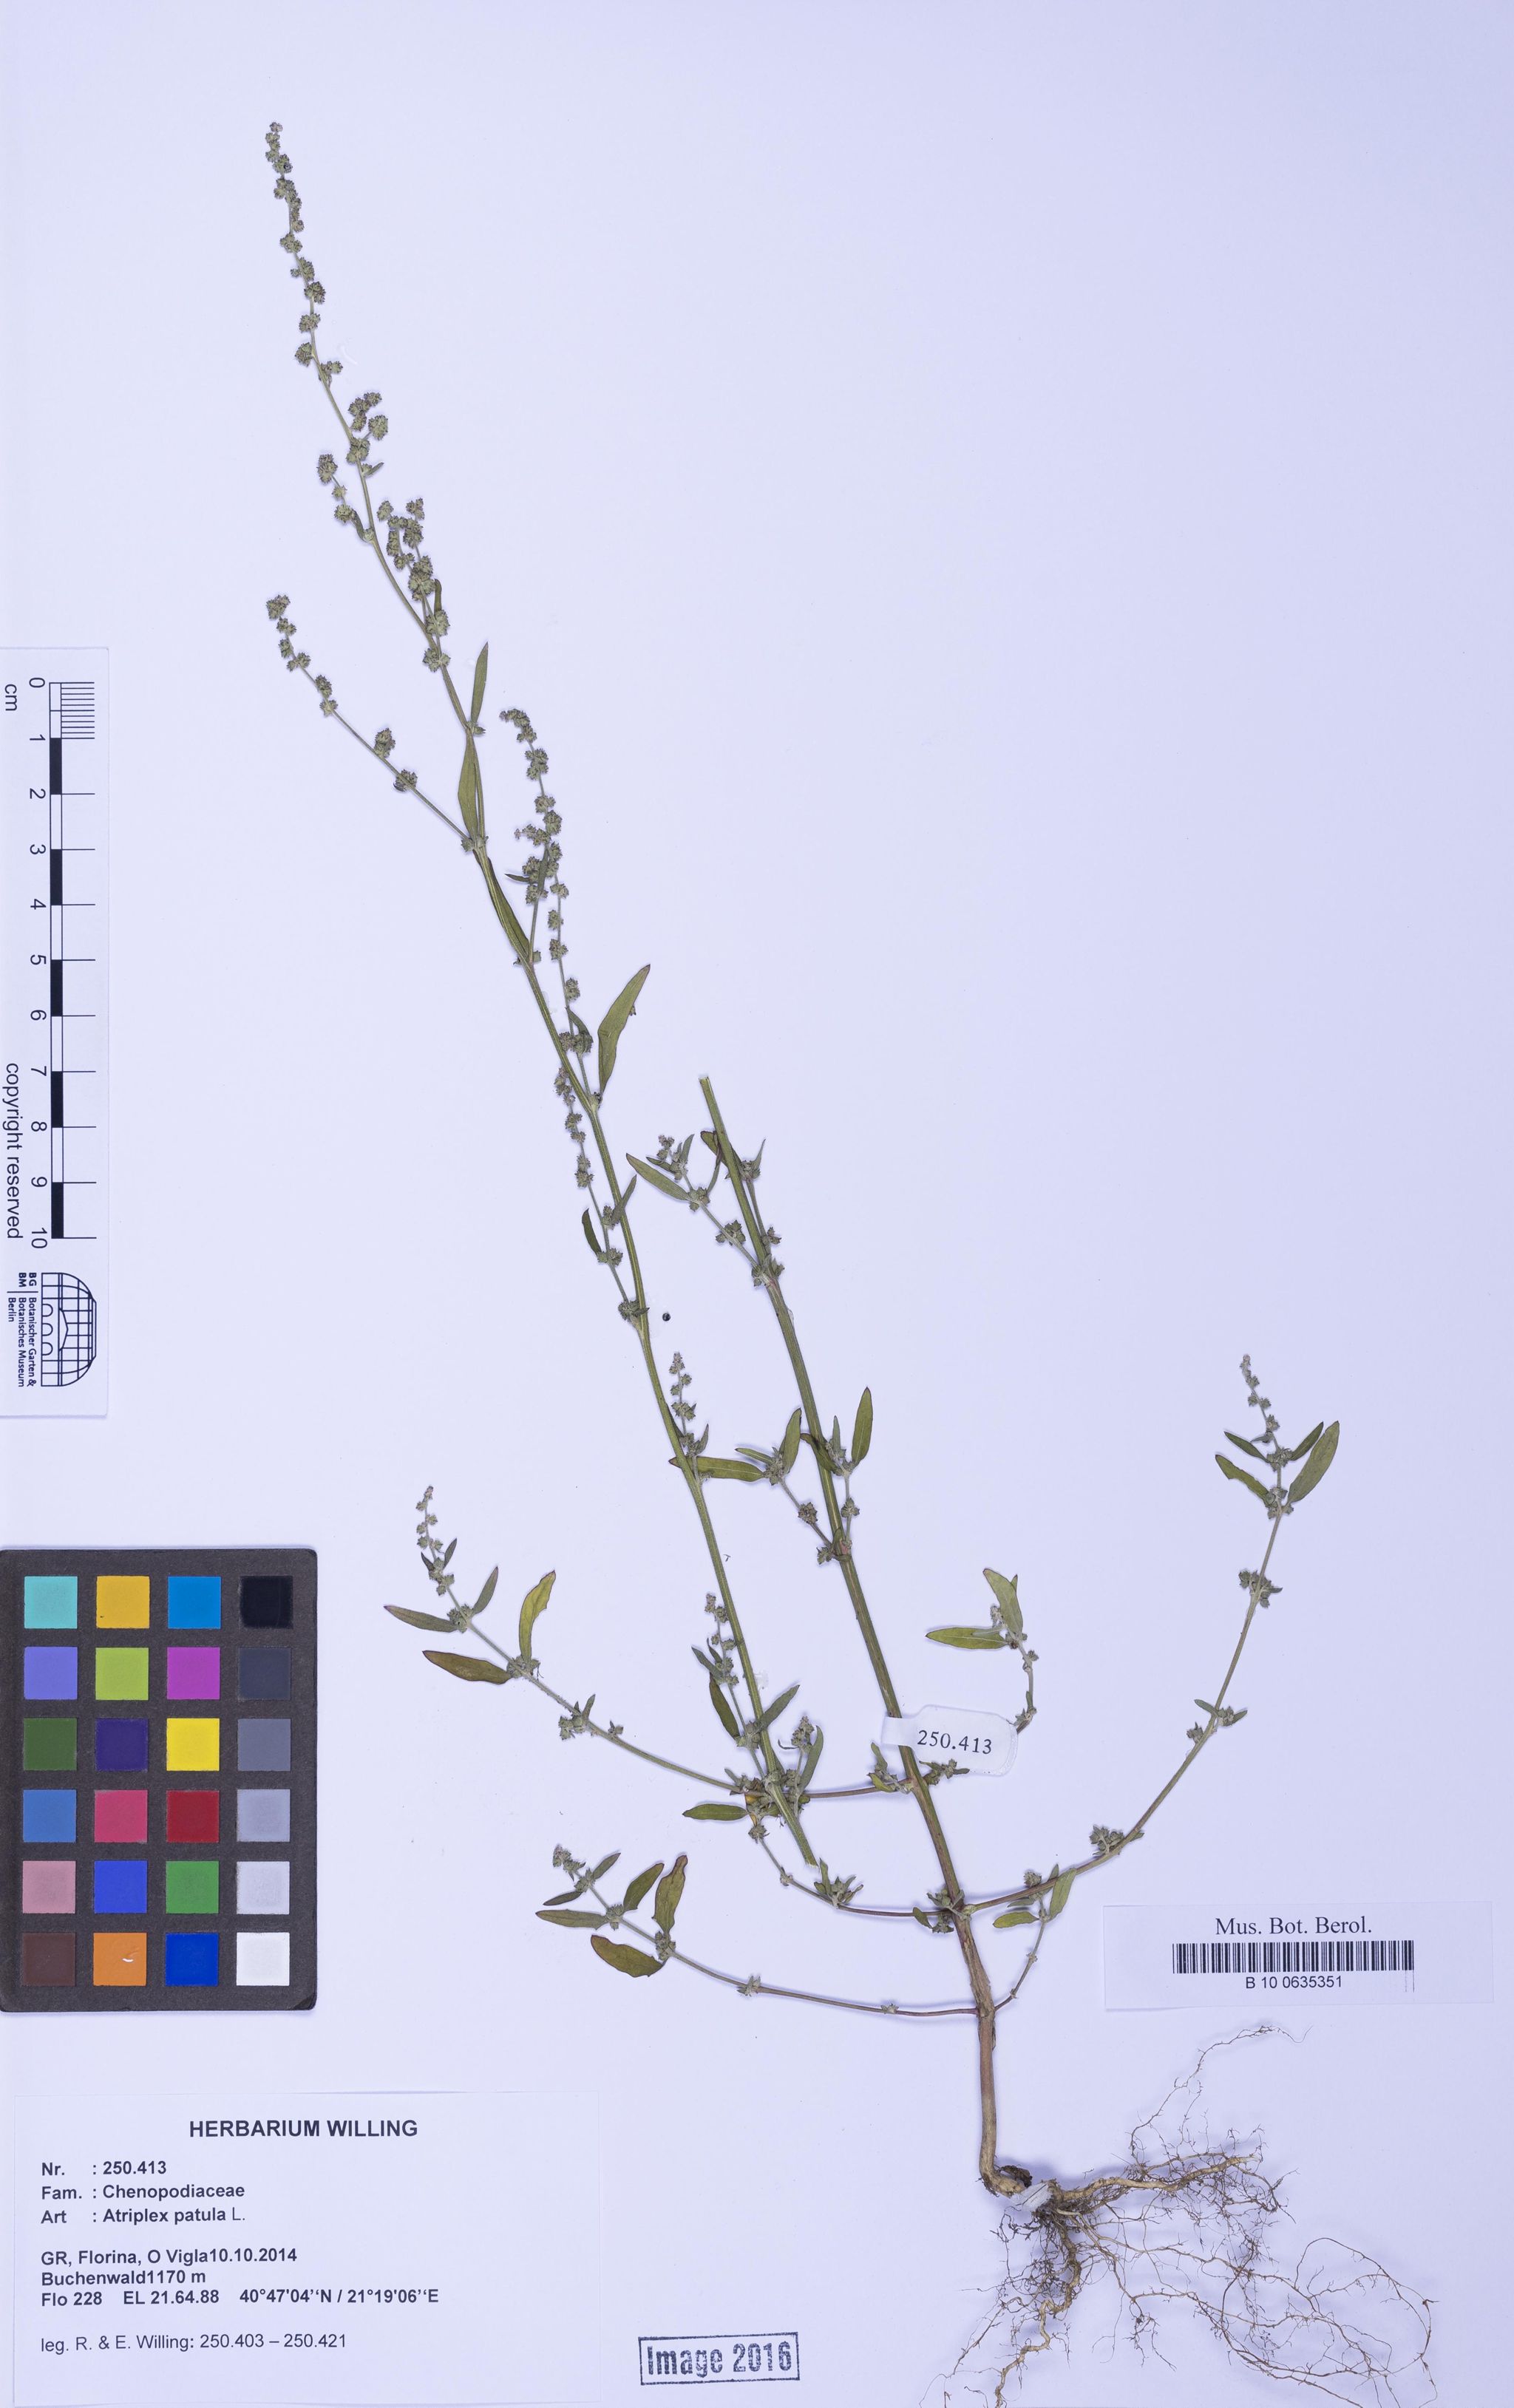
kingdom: Plantae
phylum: Tracheophyta
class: Magnoliopsida
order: Caryophyllales
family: Amaranthaceae
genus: Atriplex
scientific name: Atriplex patula
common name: Common orache
